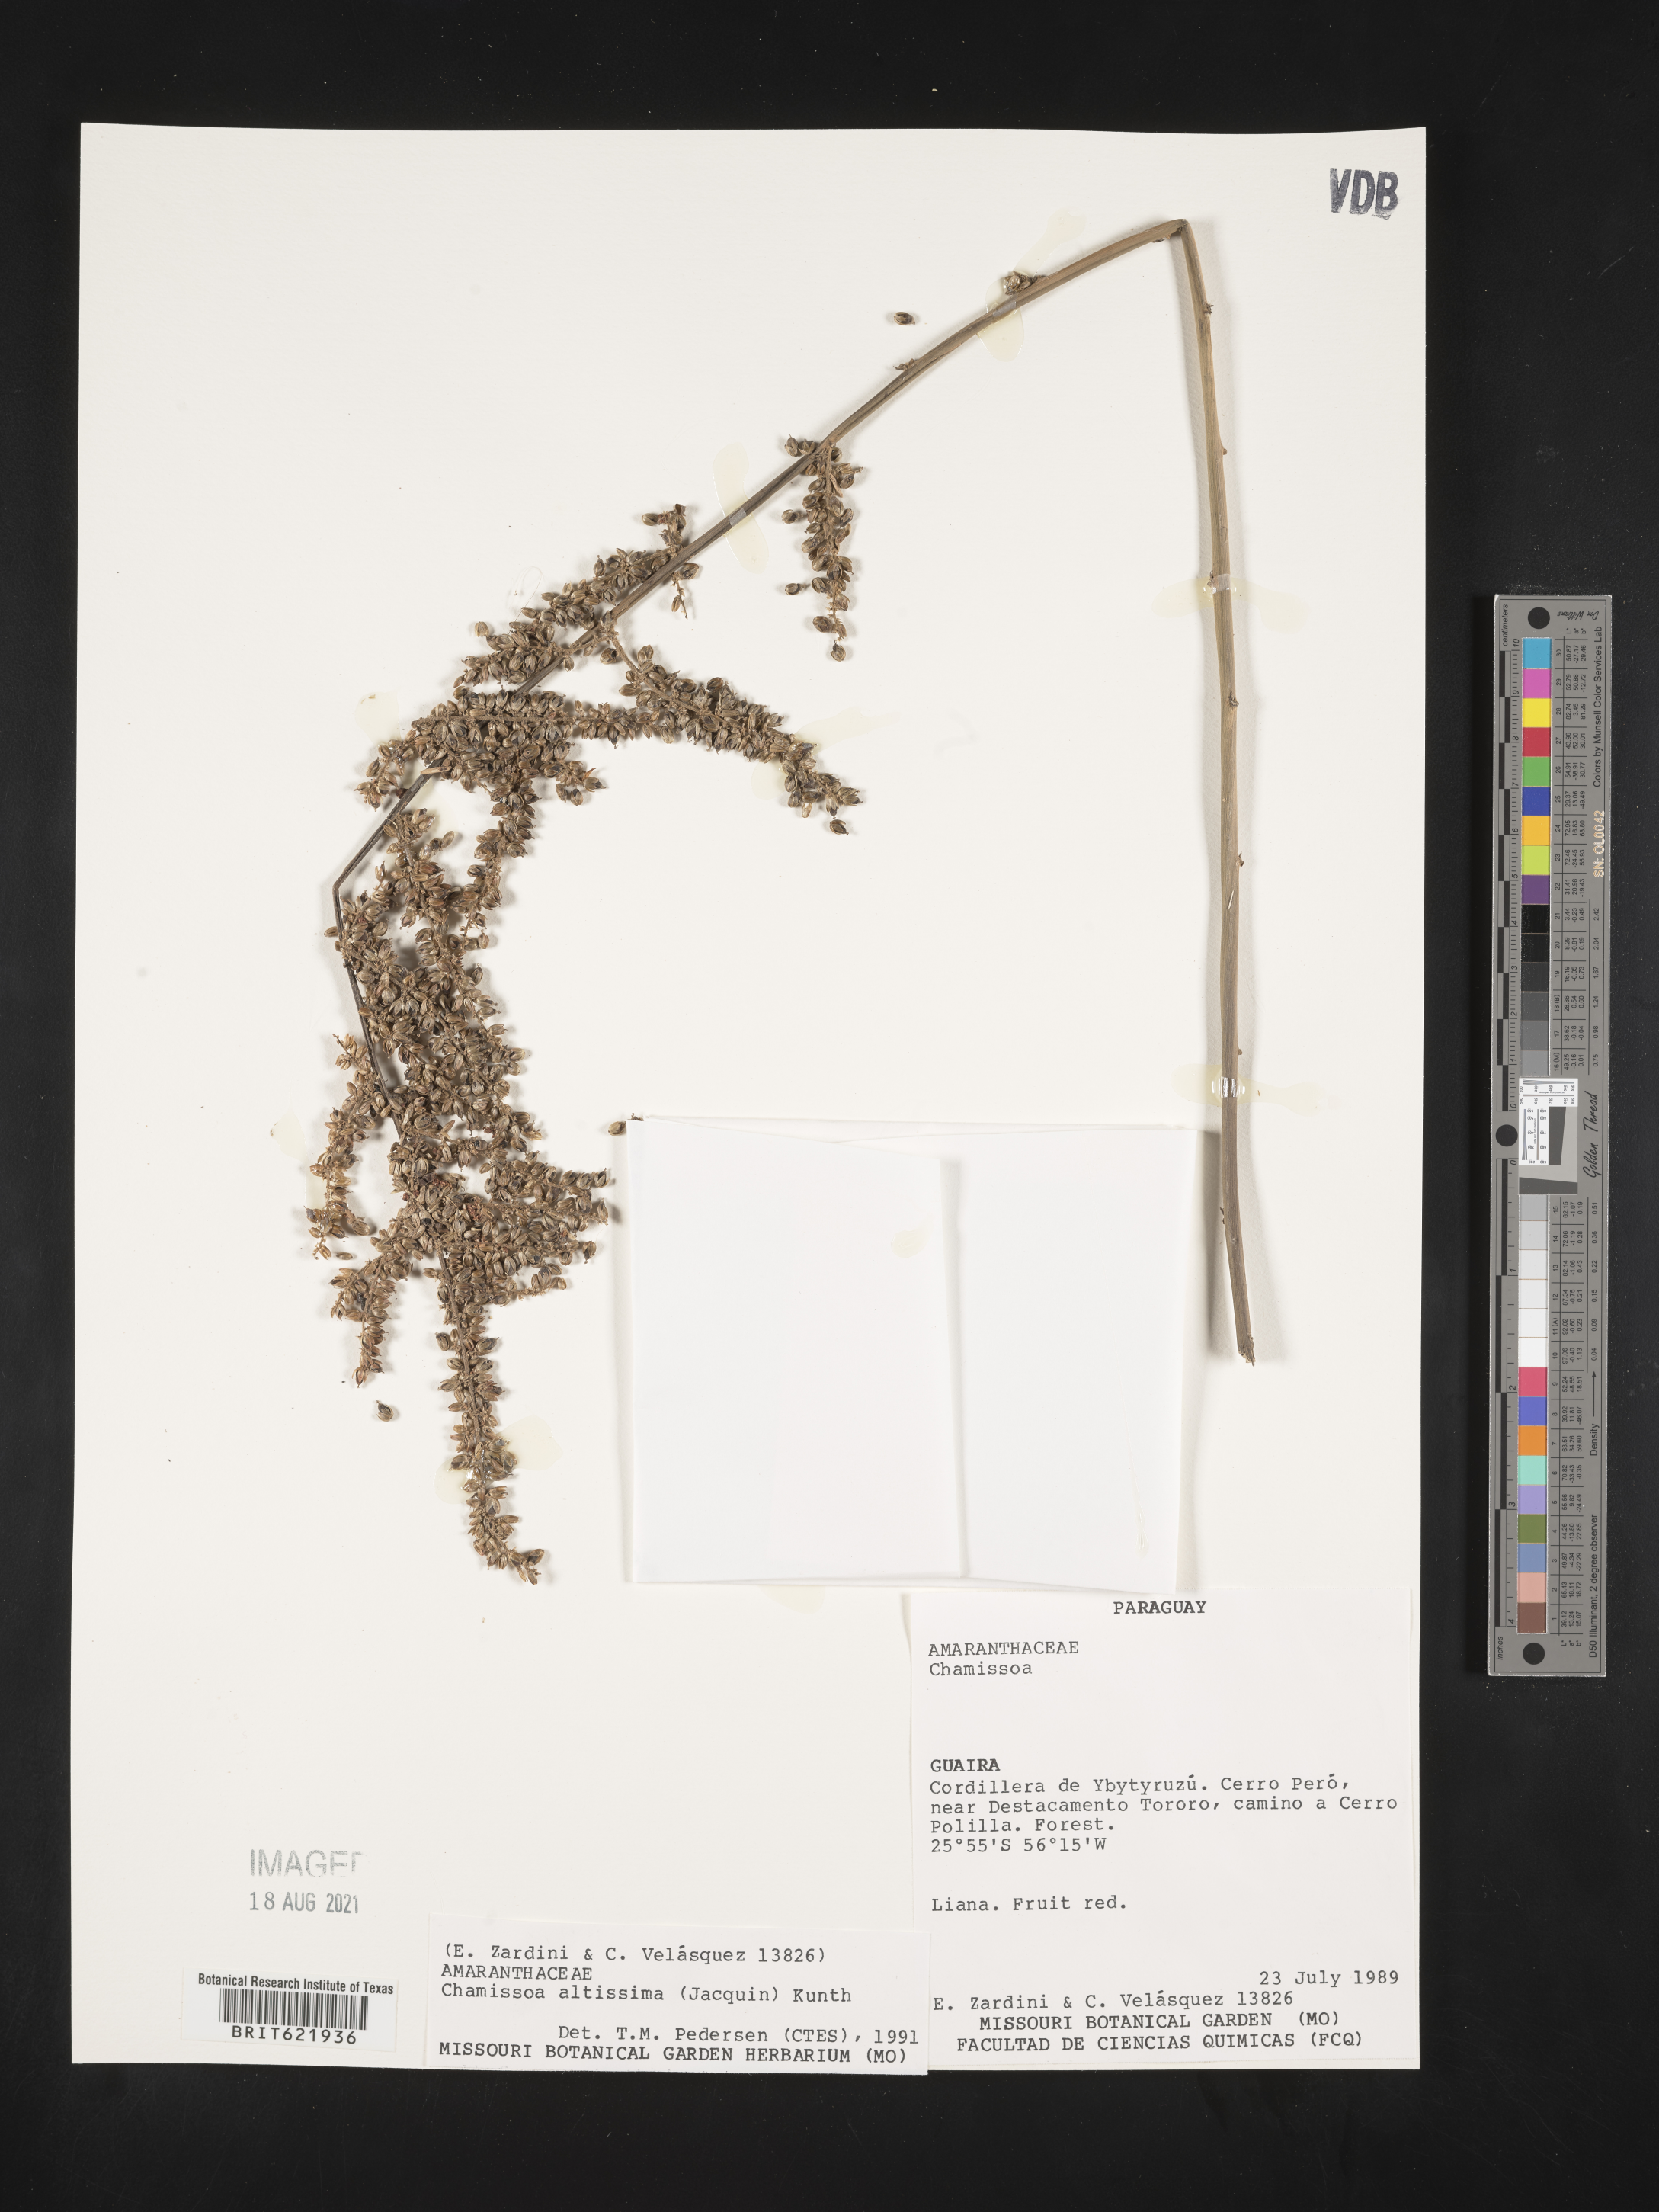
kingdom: Plantae
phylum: Tracheophyta
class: Magnoliopsida
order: Caryophyllales
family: Amaranthaceae
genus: Chamissoa
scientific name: Chamissoa altissima
